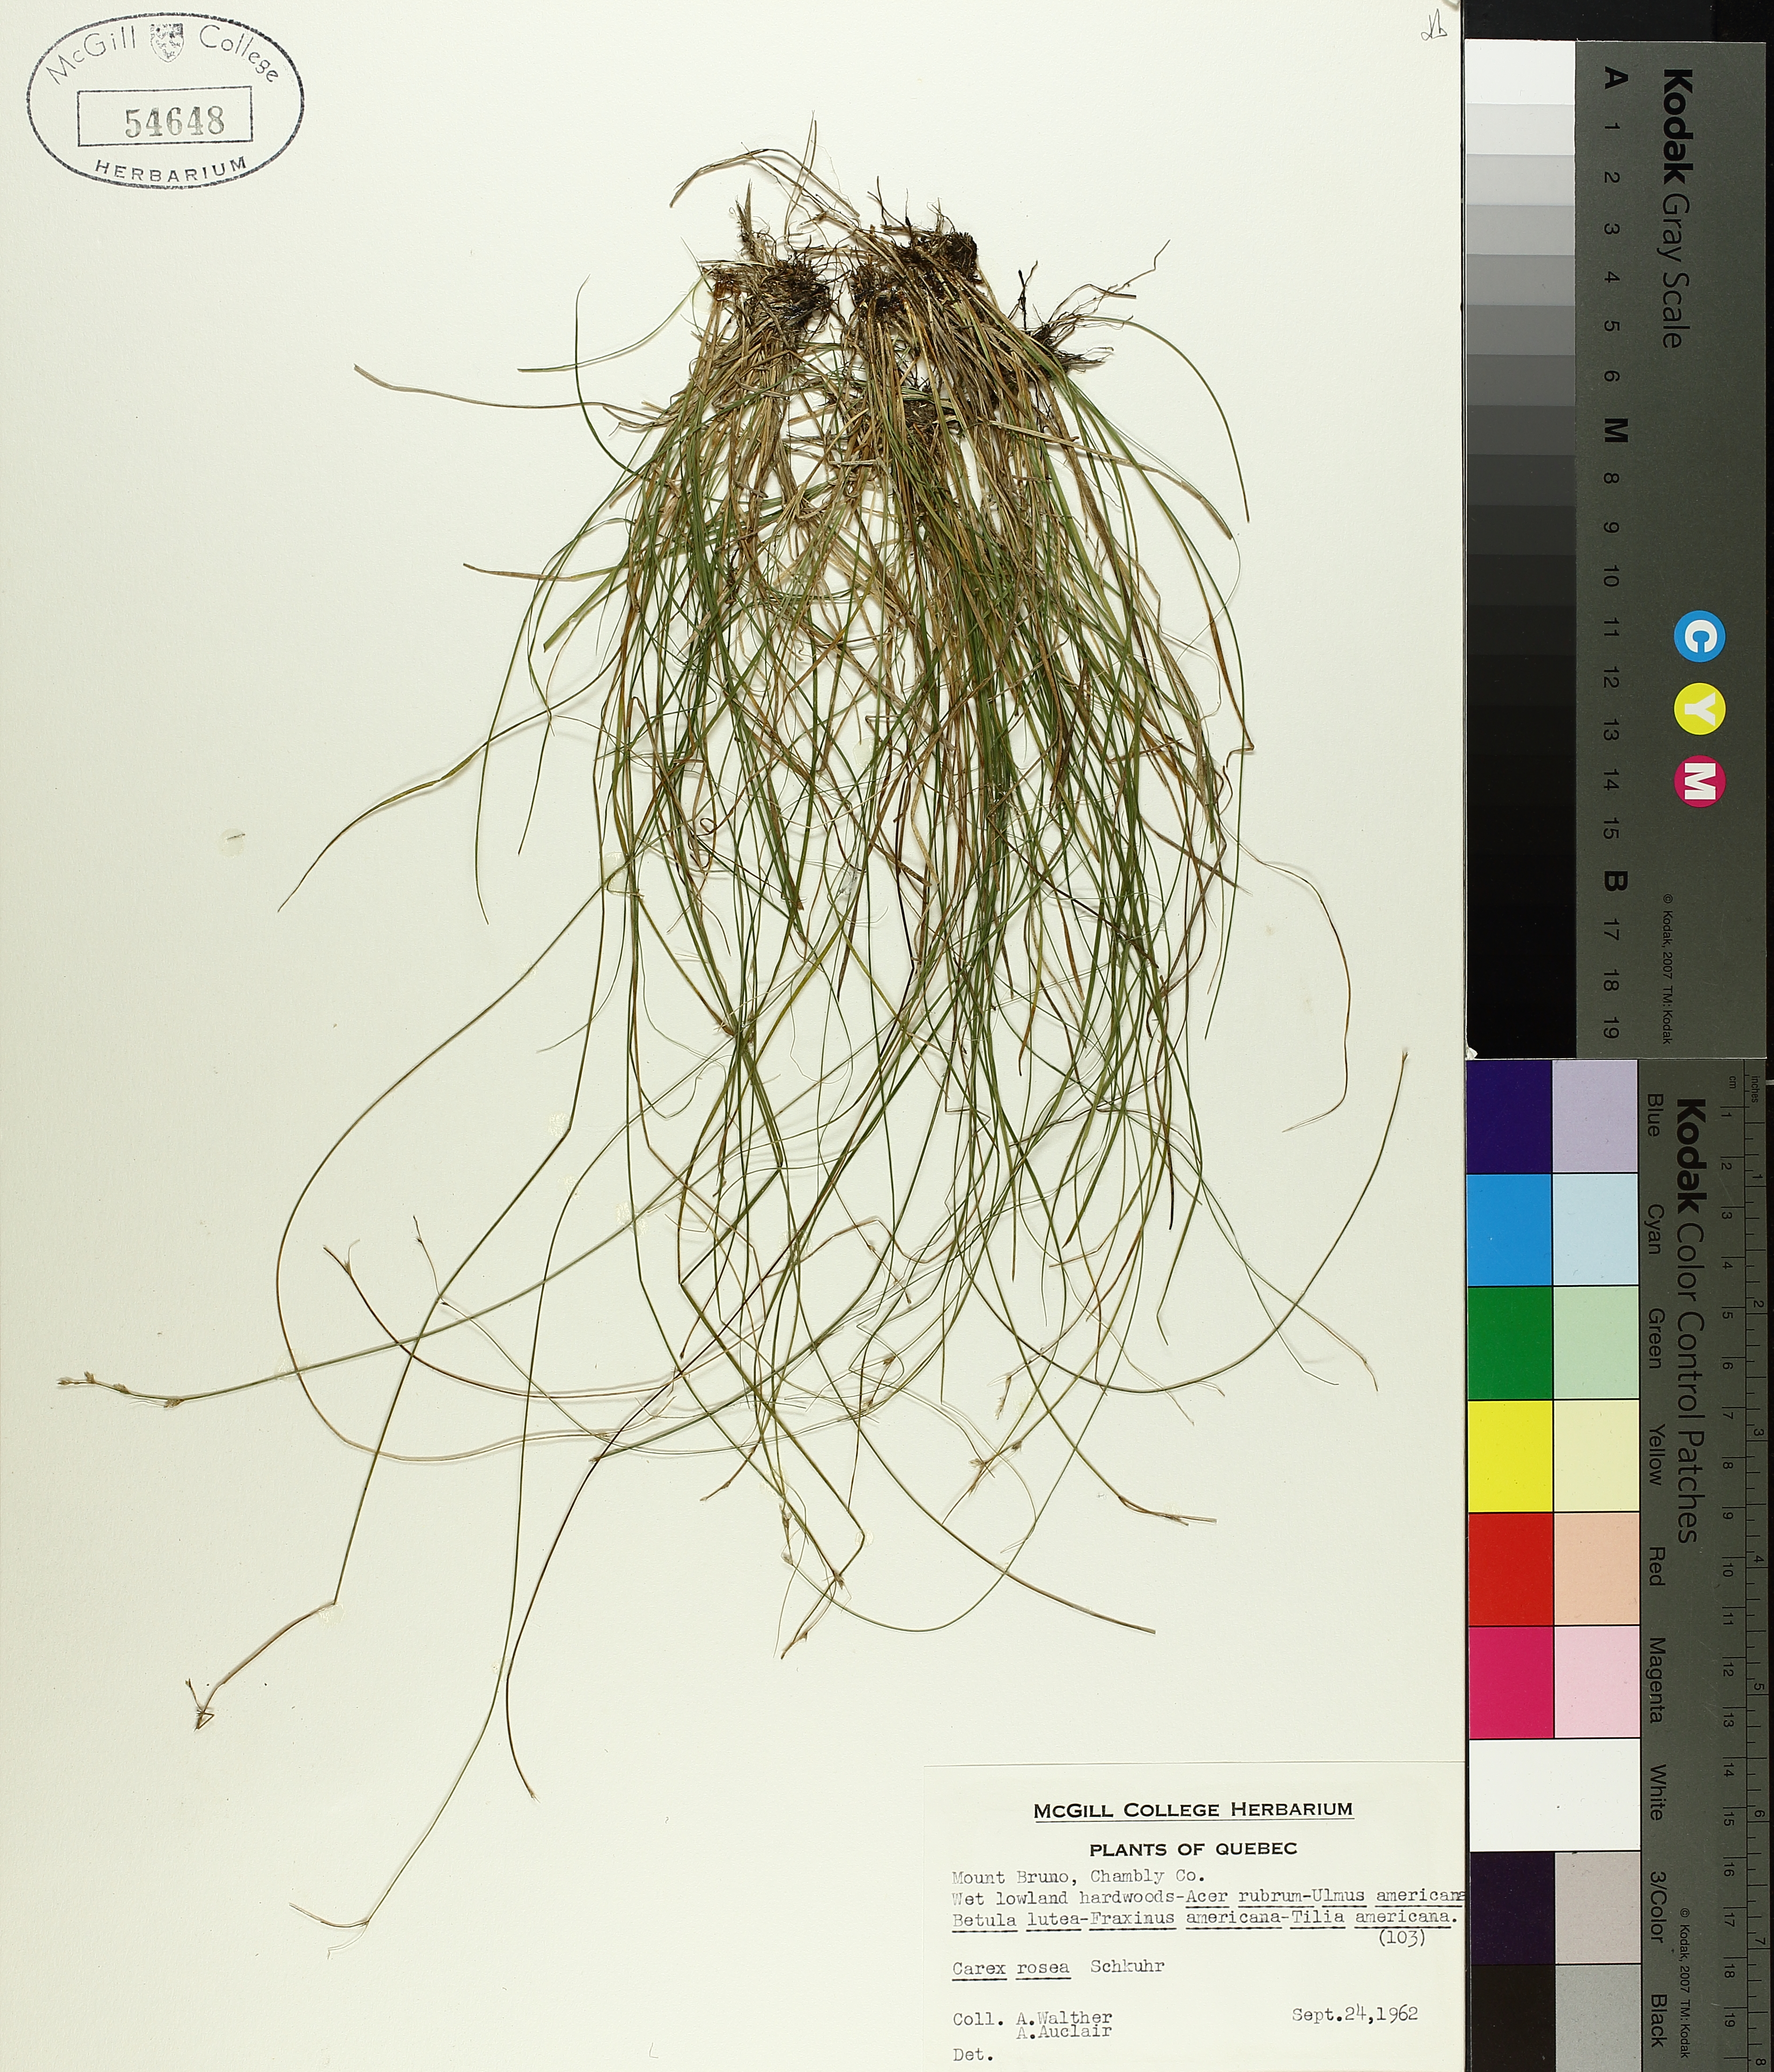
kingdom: Plantae
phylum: Tracheophyta
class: Liliopsida
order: Poales
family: Cyperaceae
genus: Carex
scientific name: Carex rosea
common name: Curly-styled wood sedge
